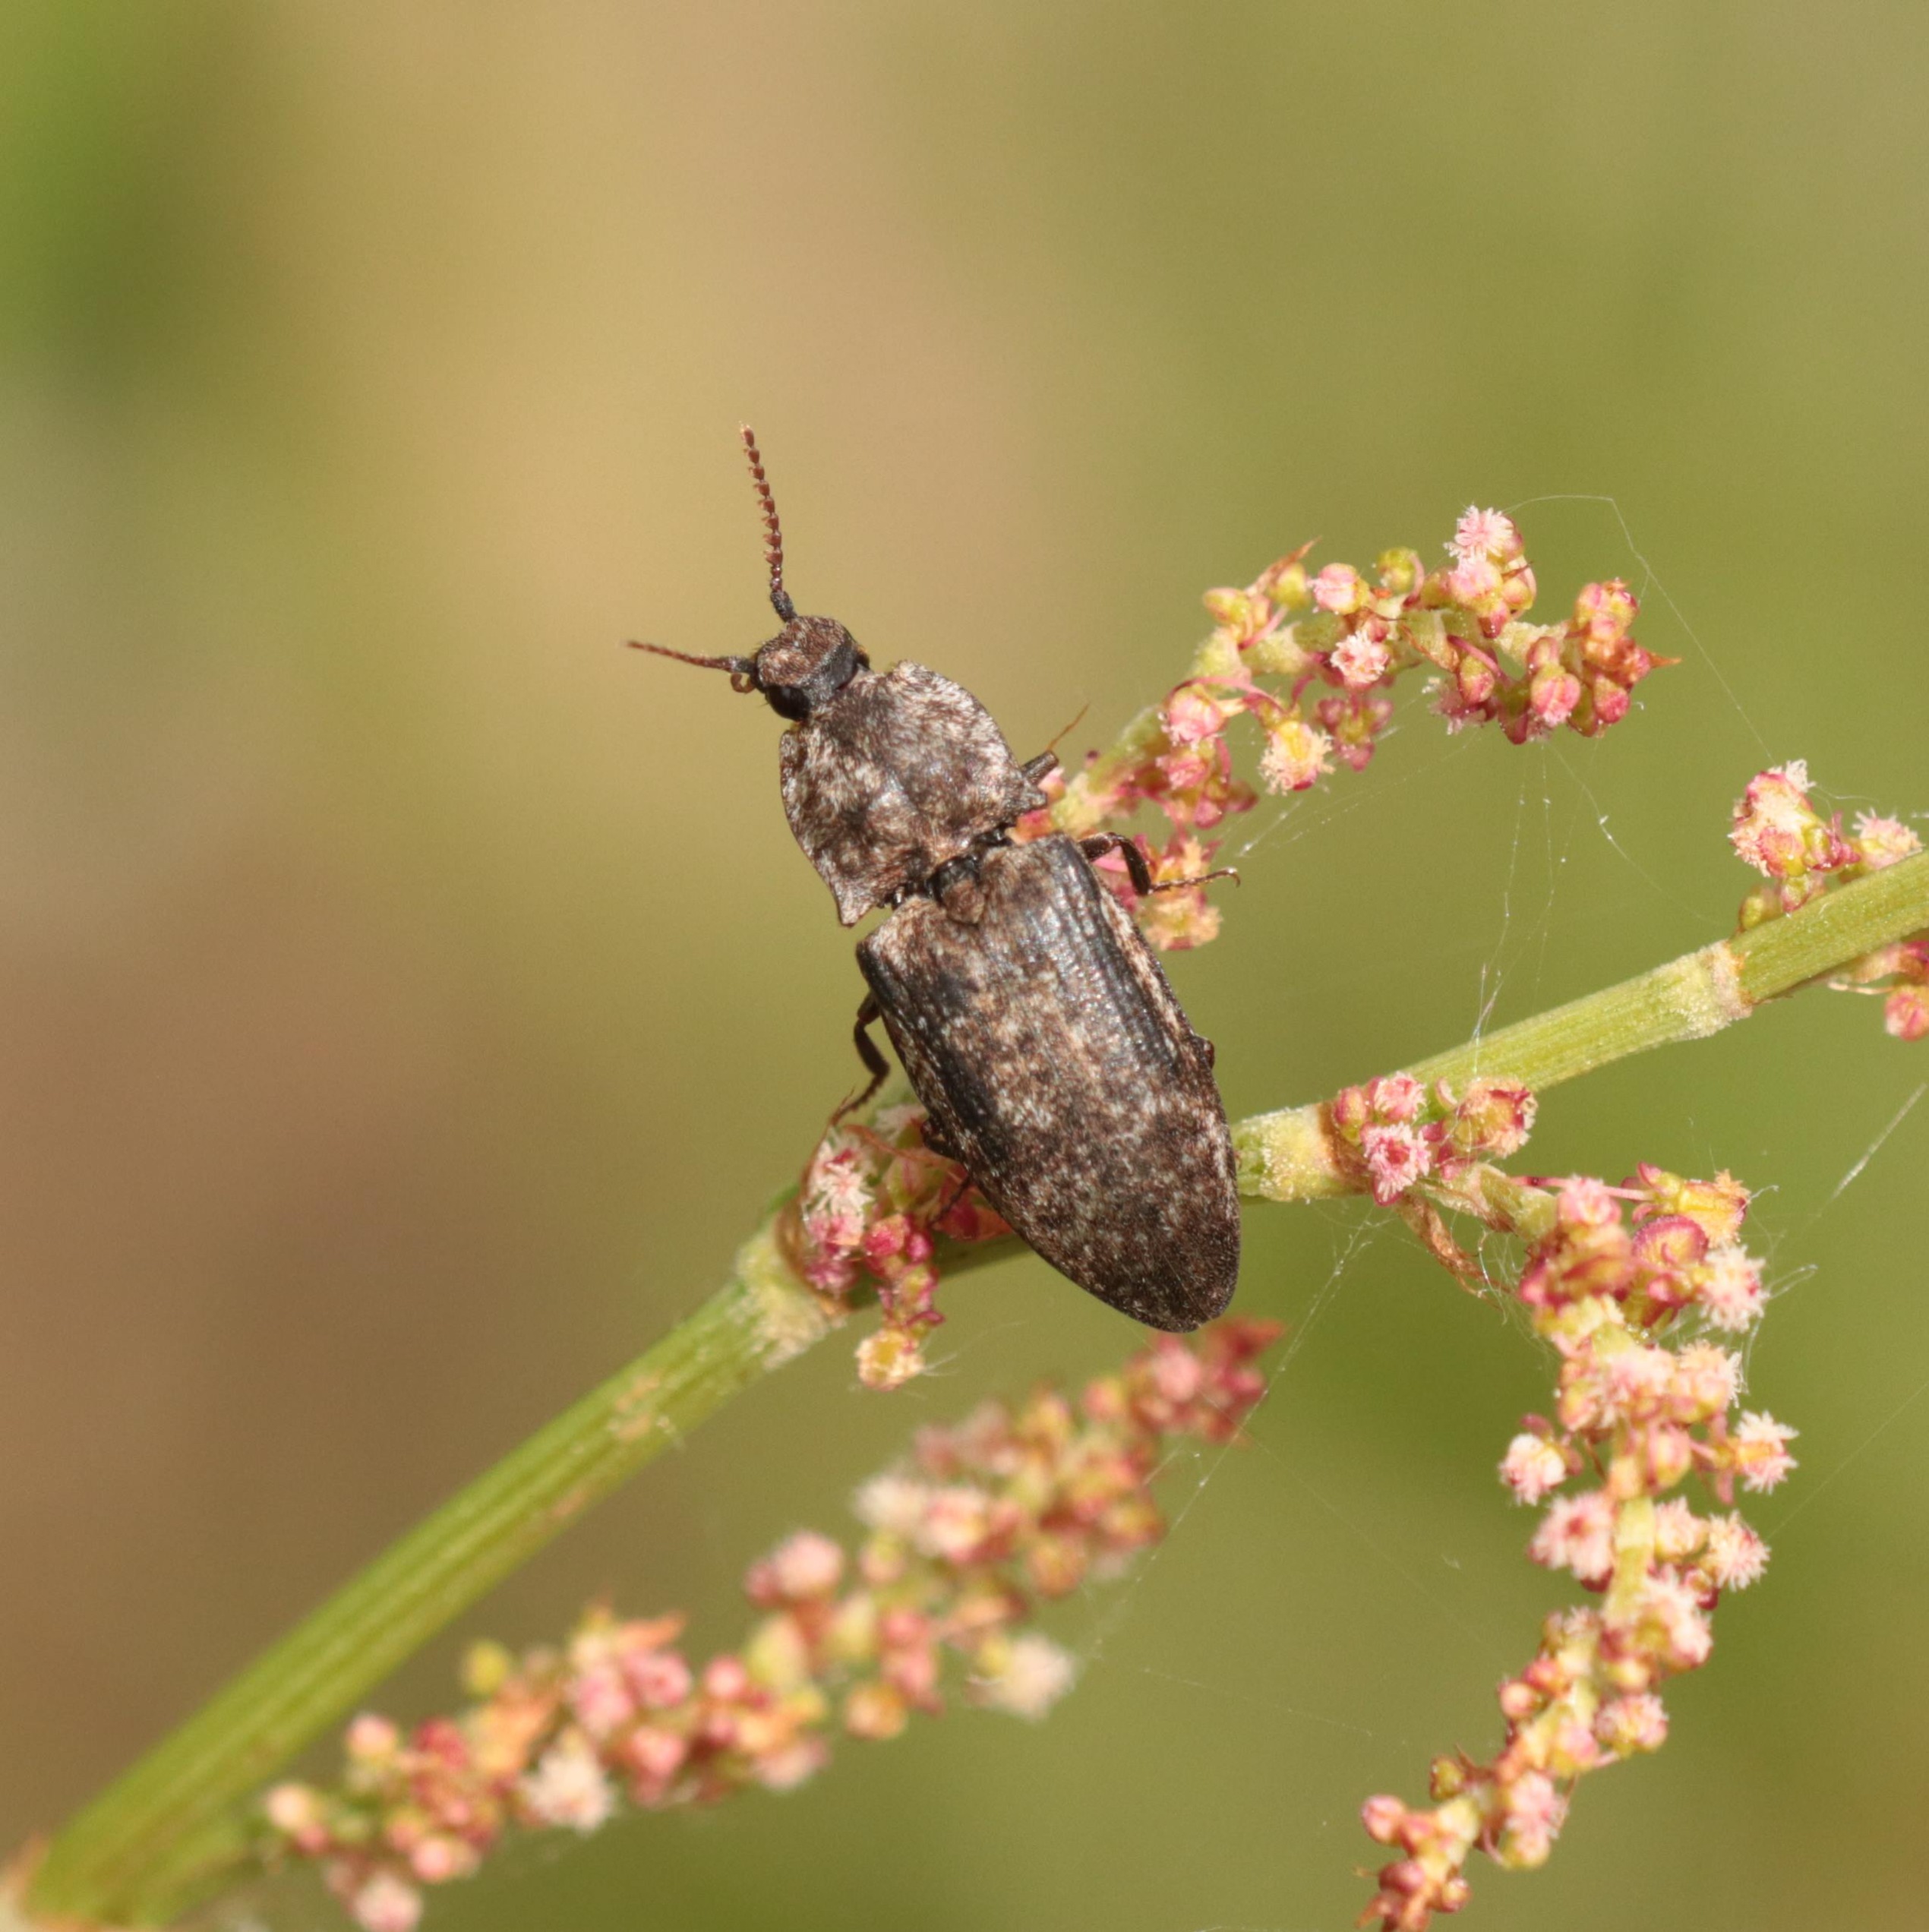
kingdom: Animalia
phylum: Arthropoda
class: Insecta
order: Coleoptera
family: Elateridae
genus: Prosternon
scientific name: Prosternon tessellatum
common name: Silkeglinsende jordsmælder
